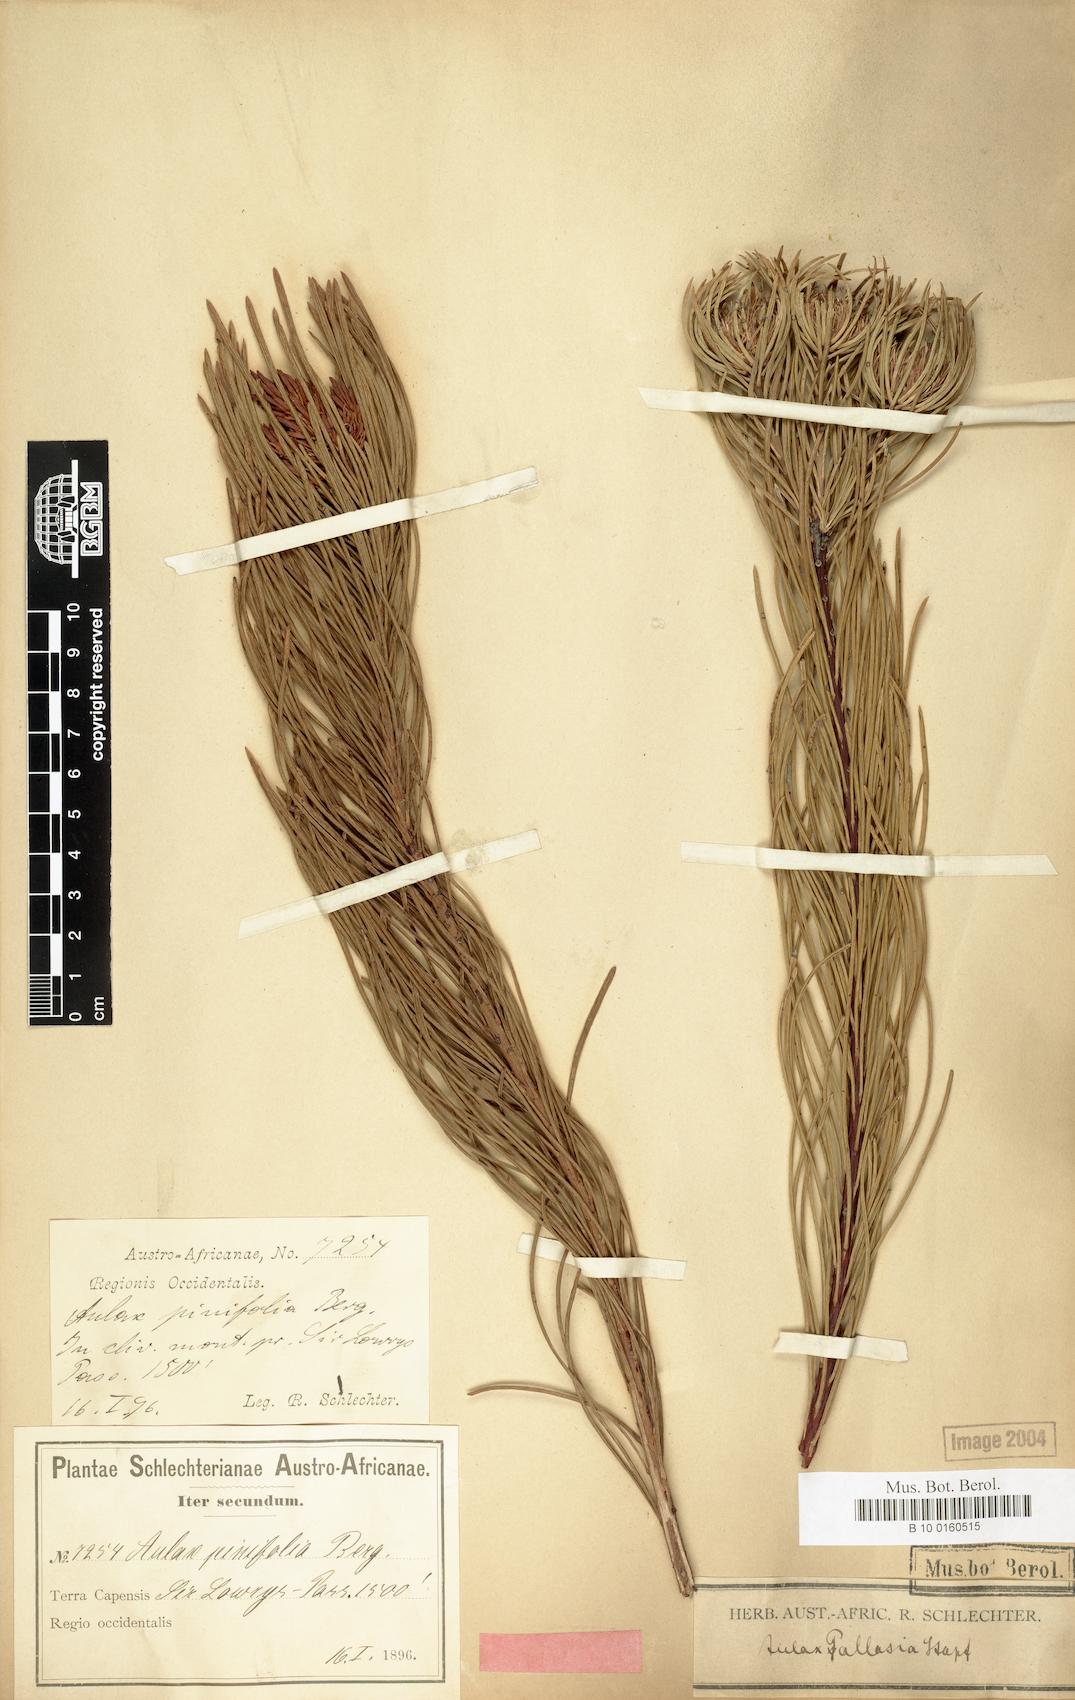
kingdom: Plantae
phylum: Tracheophyta
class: Magnoliopsida
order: Proteales
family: Proteaceae
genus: Aulax
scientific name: Aulax pallasia
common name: Needle-leaf featherbush
